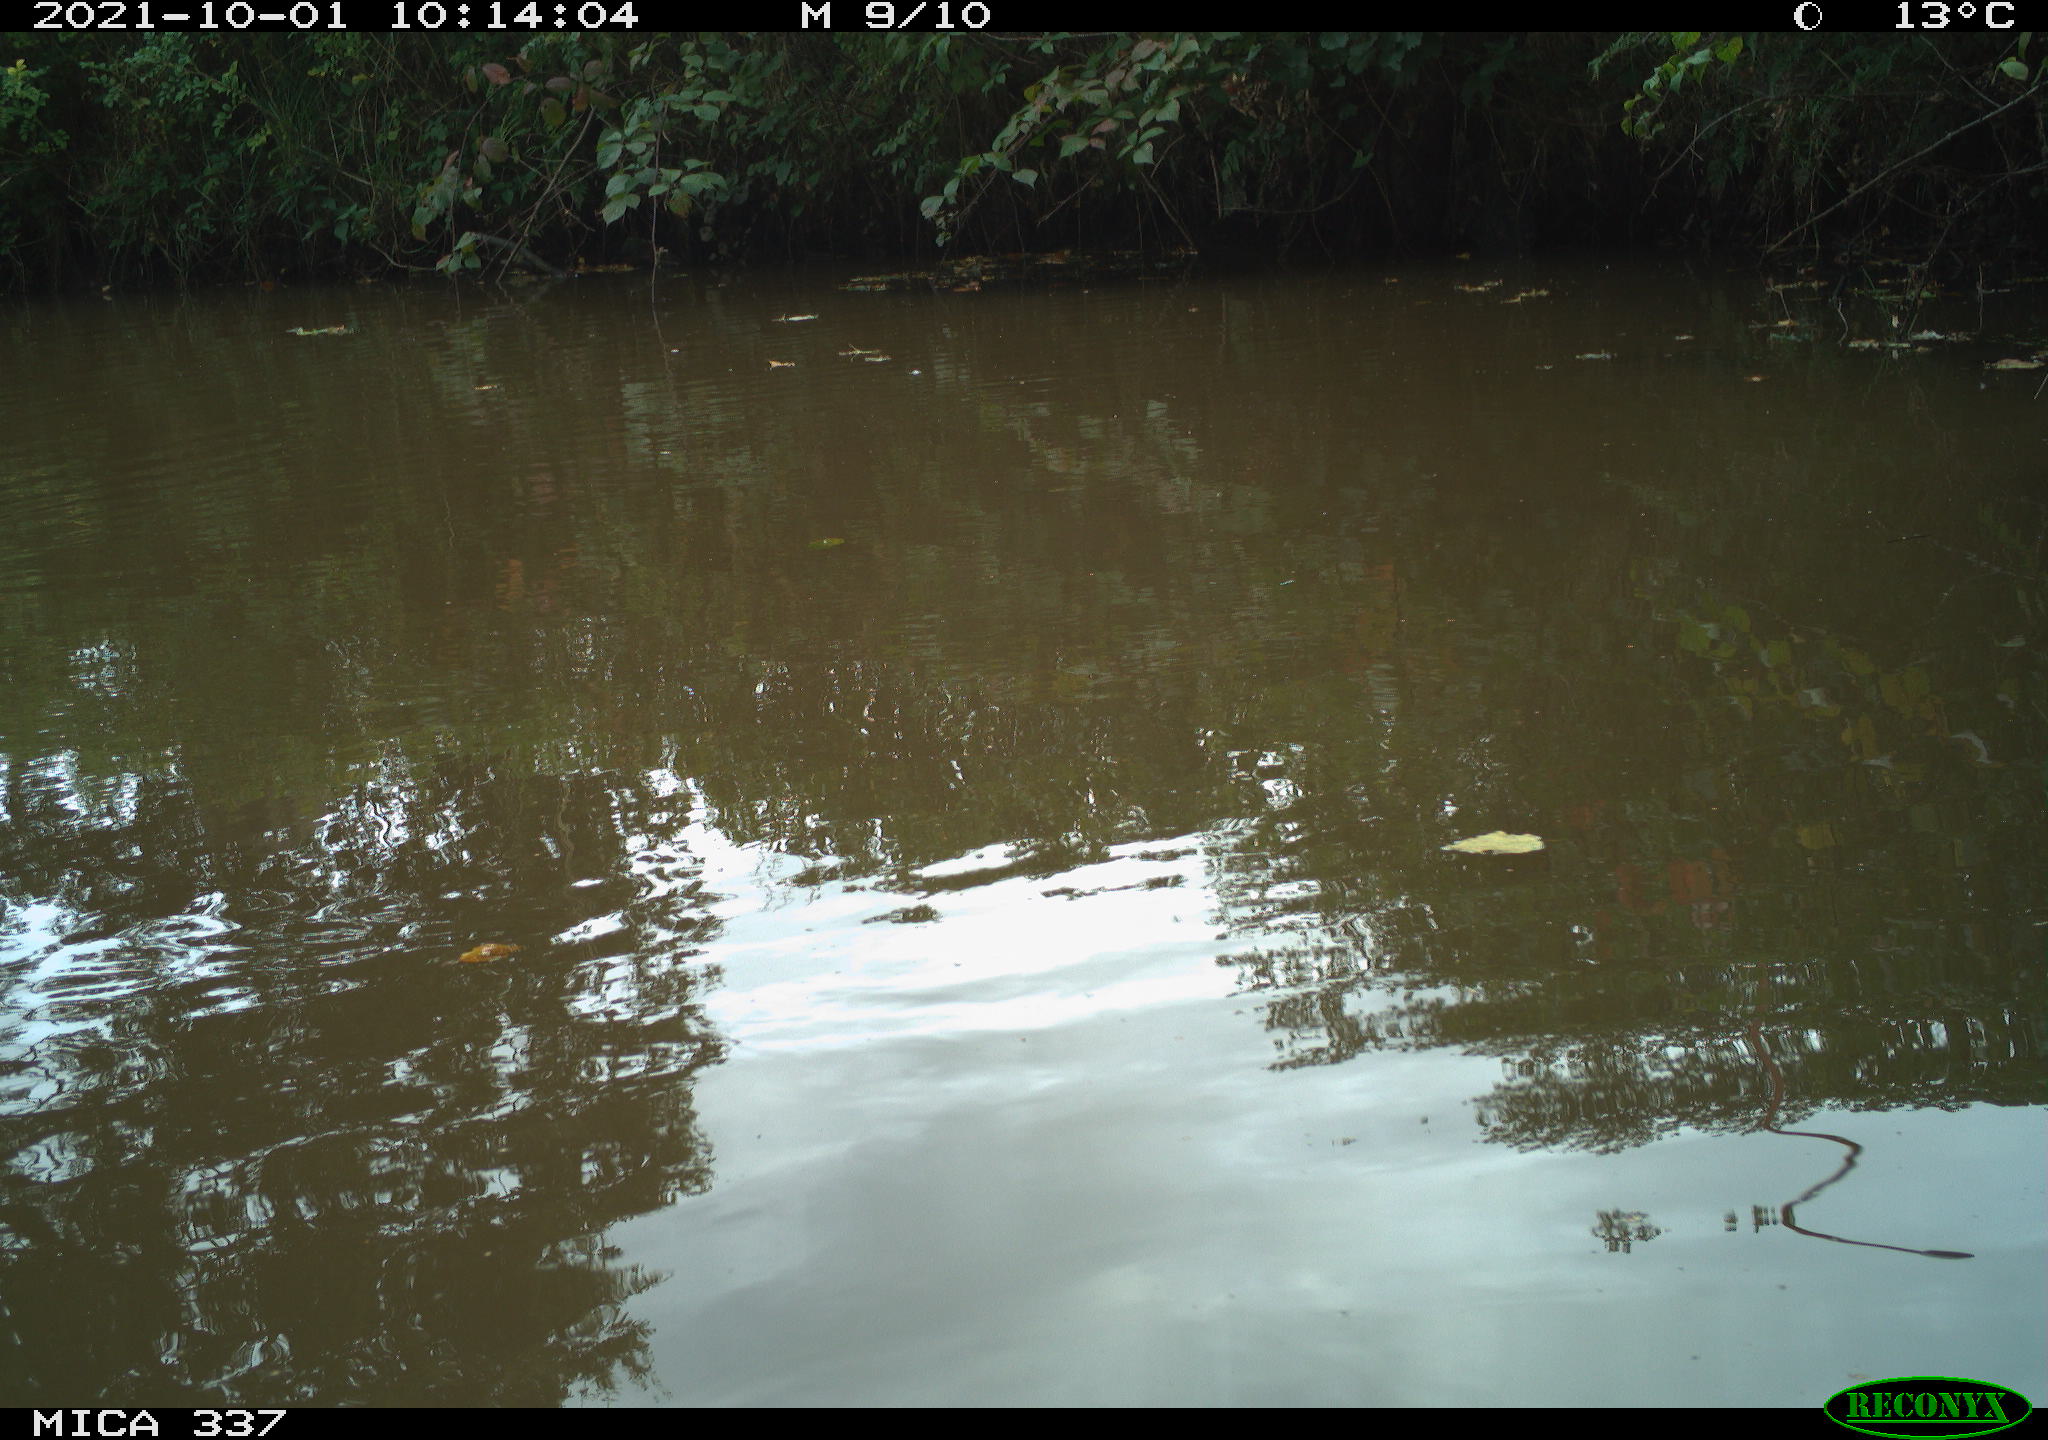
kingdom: Animalia
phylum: Chordata
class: Aves
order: Anseriformes
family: Anatidae
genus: Anas
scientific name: Anas platyrhynchos
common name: Mallard
